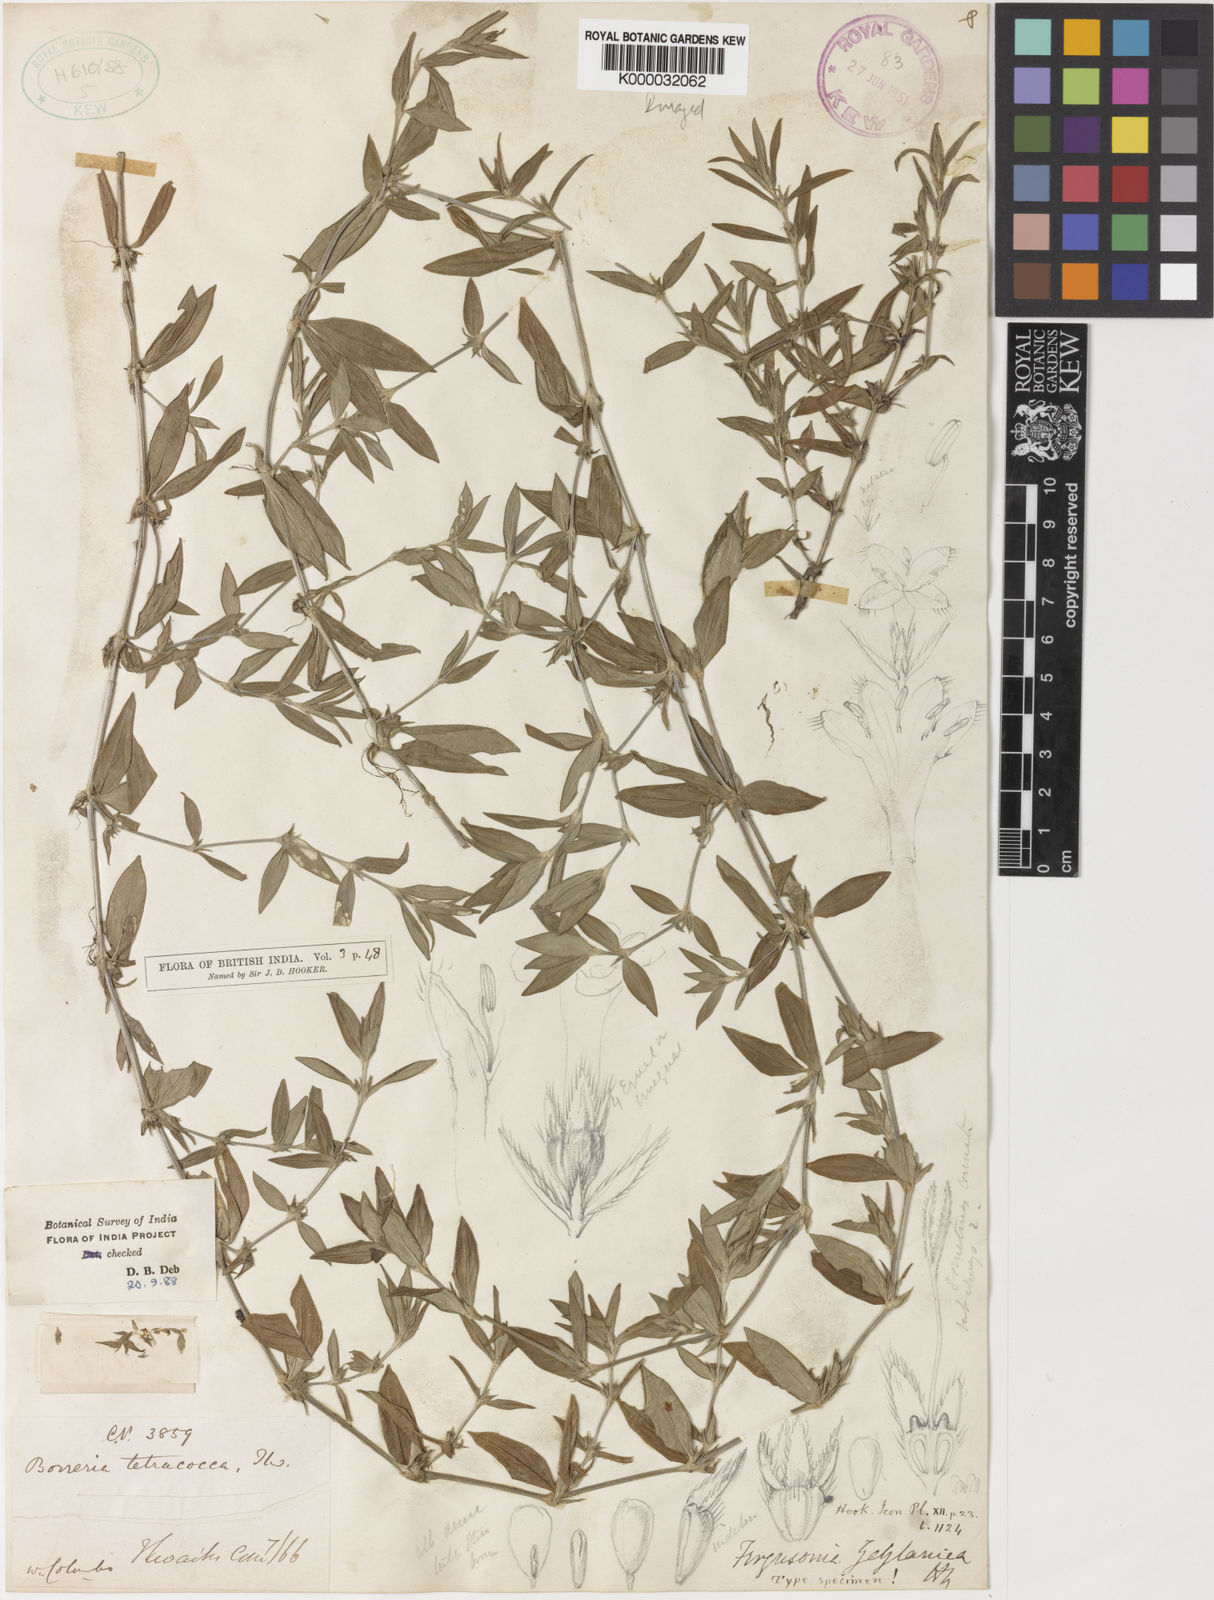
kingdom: Plantae
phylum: Tracheophyta
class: Magnoliopsida
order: Gentianales
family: Rubiaceae
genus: Fergusonia
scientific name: Fergusonia zeylanica
